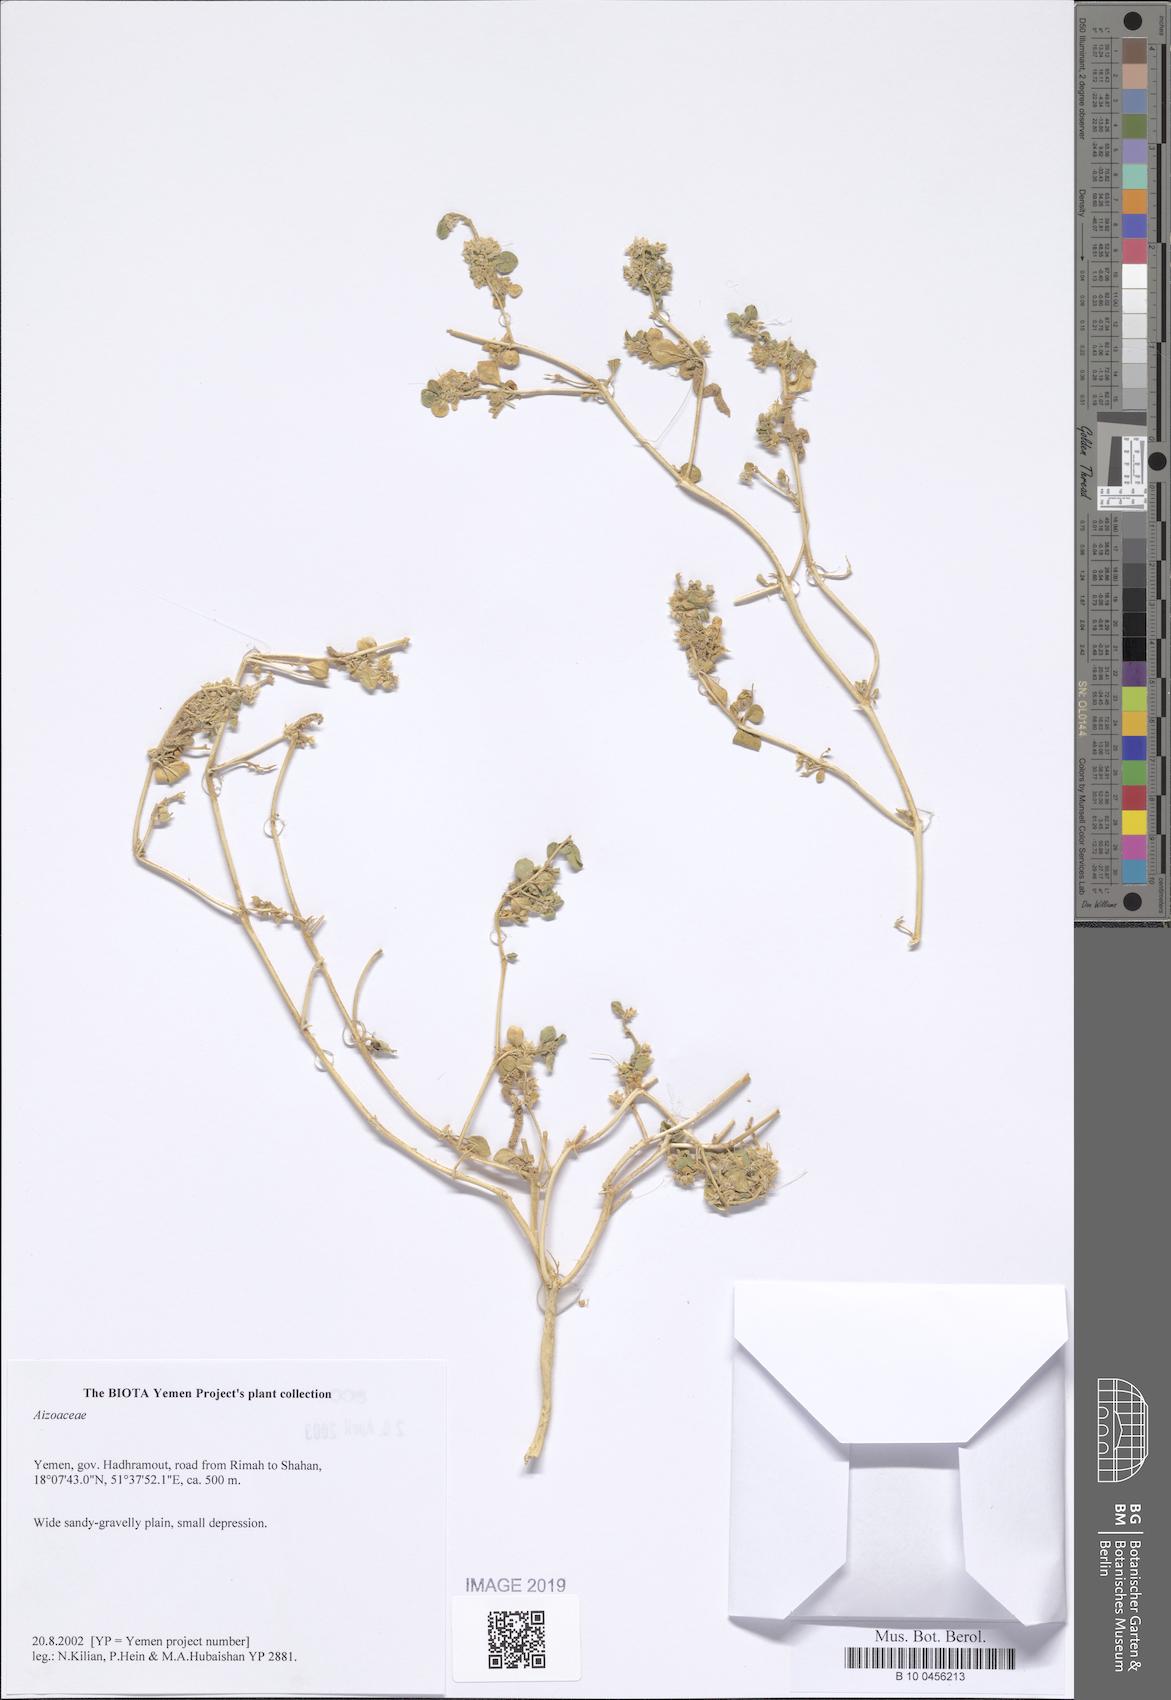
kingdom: Plantae
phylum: Tracheophyta
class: Magnoliopsida
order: Caryophyllales
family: Aizoaceae
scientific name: Aizoaceae
